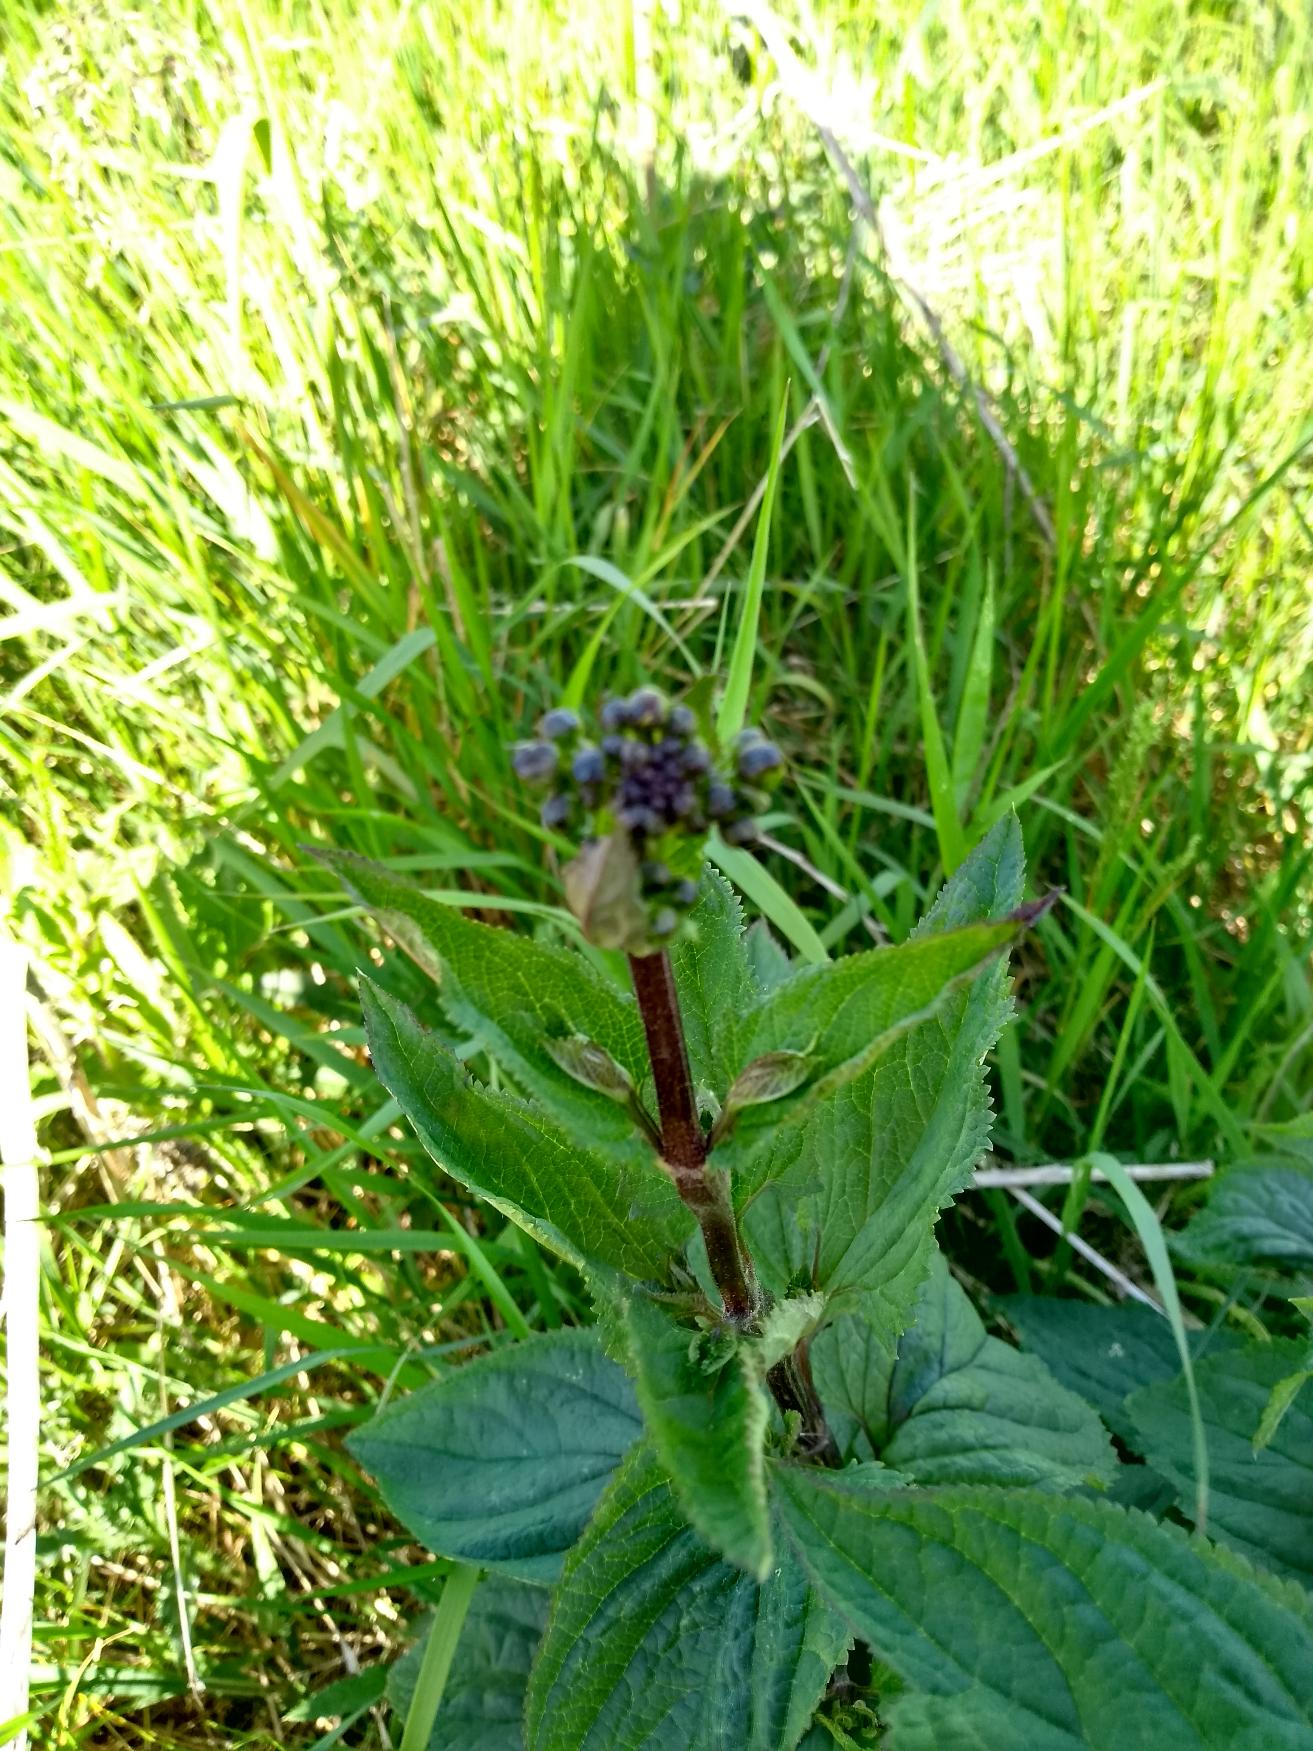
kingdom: Plantae
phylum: Tracheophyta
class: Magnoliopsida
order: Lamiales
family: Scrophulariaceae
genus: Scrophularia
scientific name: Scrophularia nodosa
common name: Knoldet brunrod
